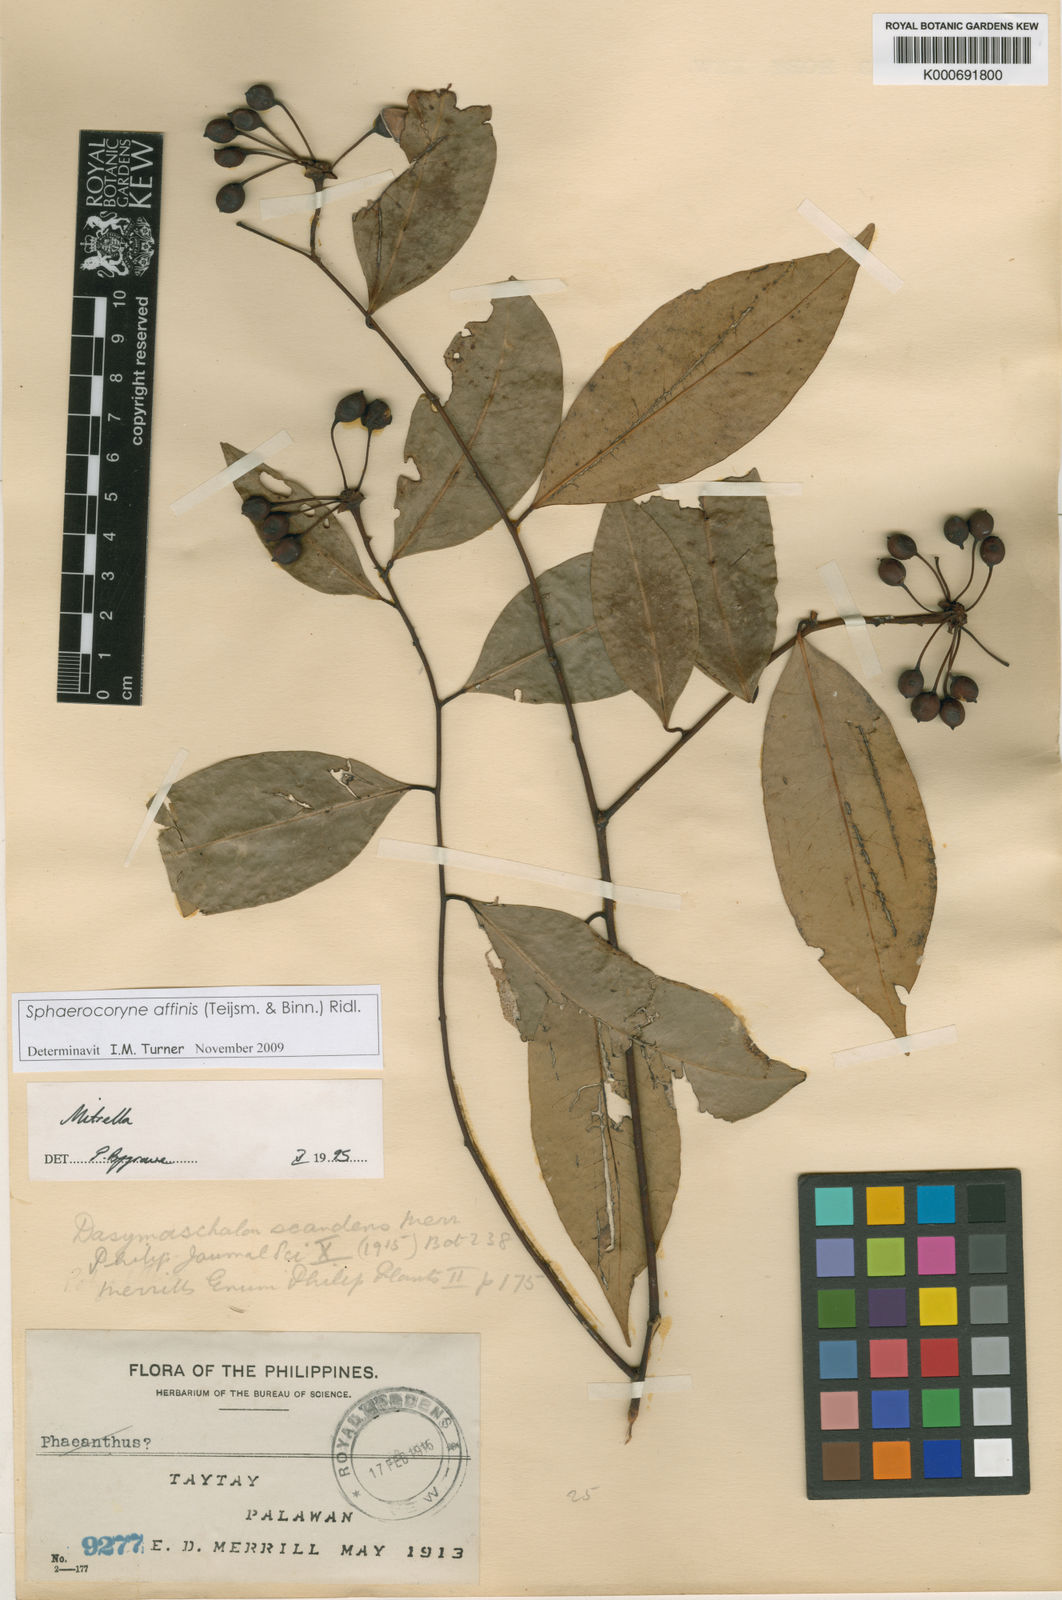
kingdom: Plantae
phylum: Tracheophyta
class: Magnoliopsida
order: Magnoliales
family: Annonaceae
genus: Sphaerocoryne
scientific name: Sphaerocoryne affinis
